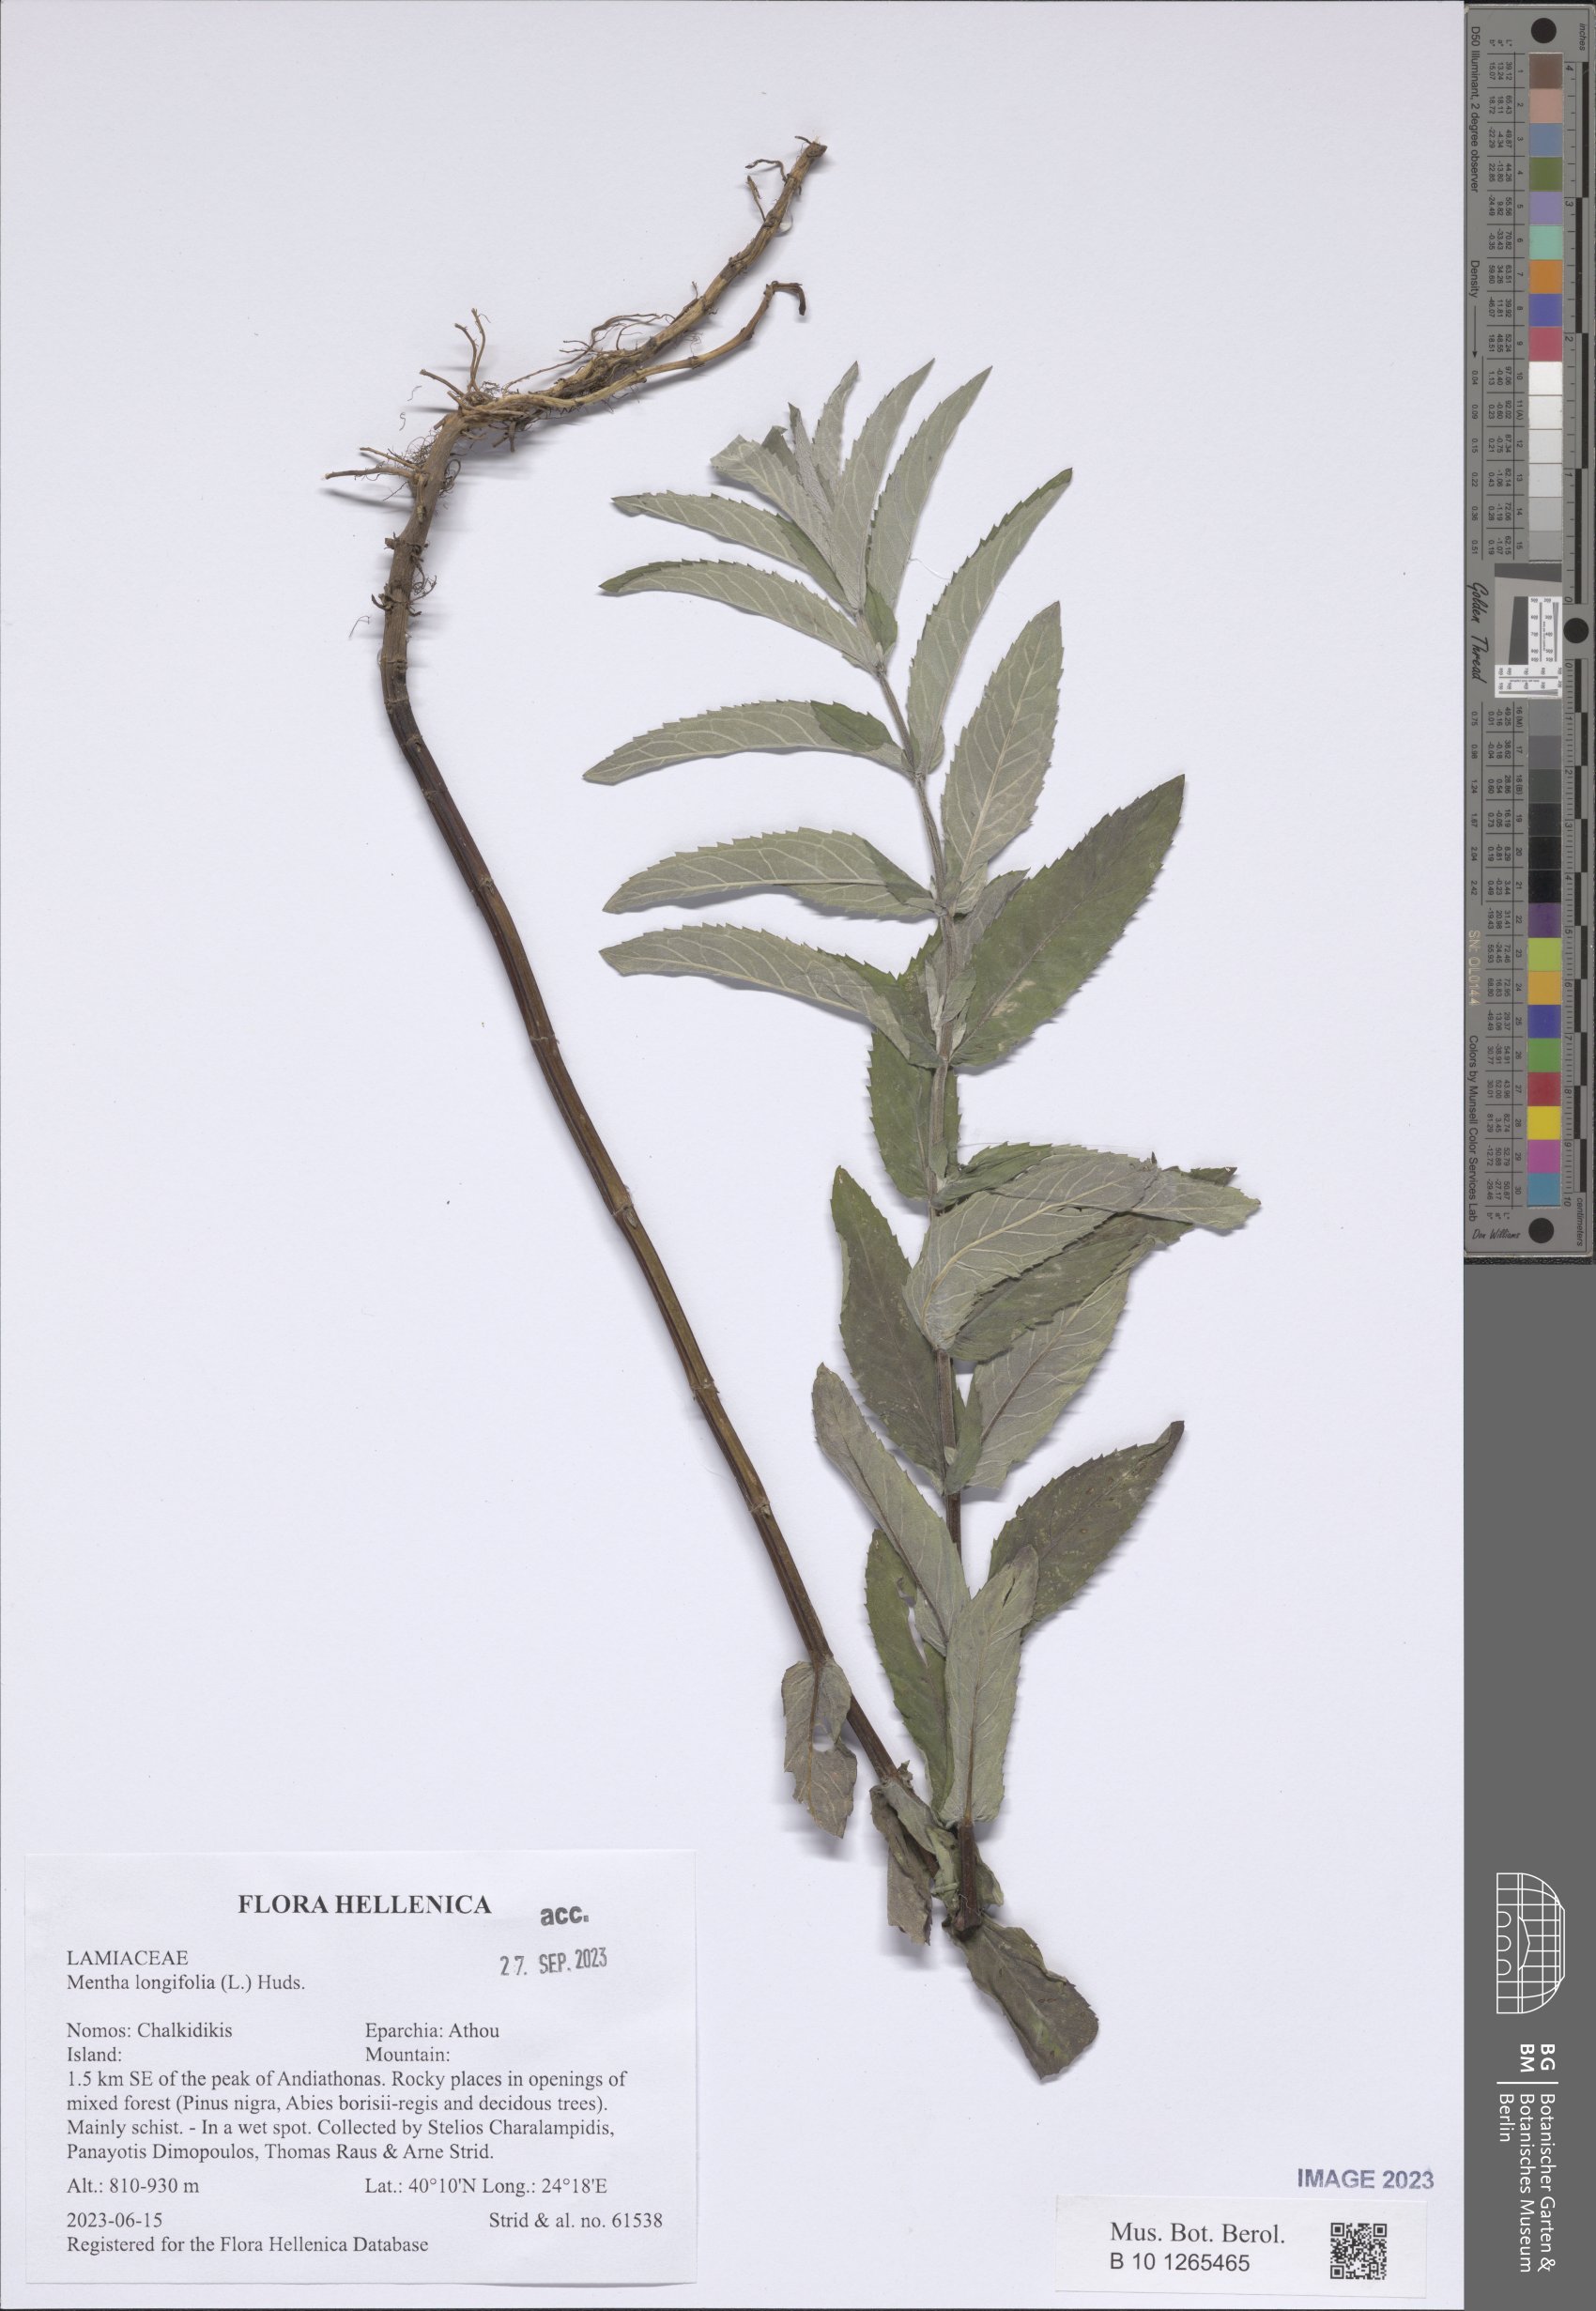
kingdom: Plantae
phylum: Tracheophyta
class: Magnoliopsida
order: Lamiales
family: Lamiaceae
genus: Mentha
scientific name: Mentha longifolia
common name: Horse mint
